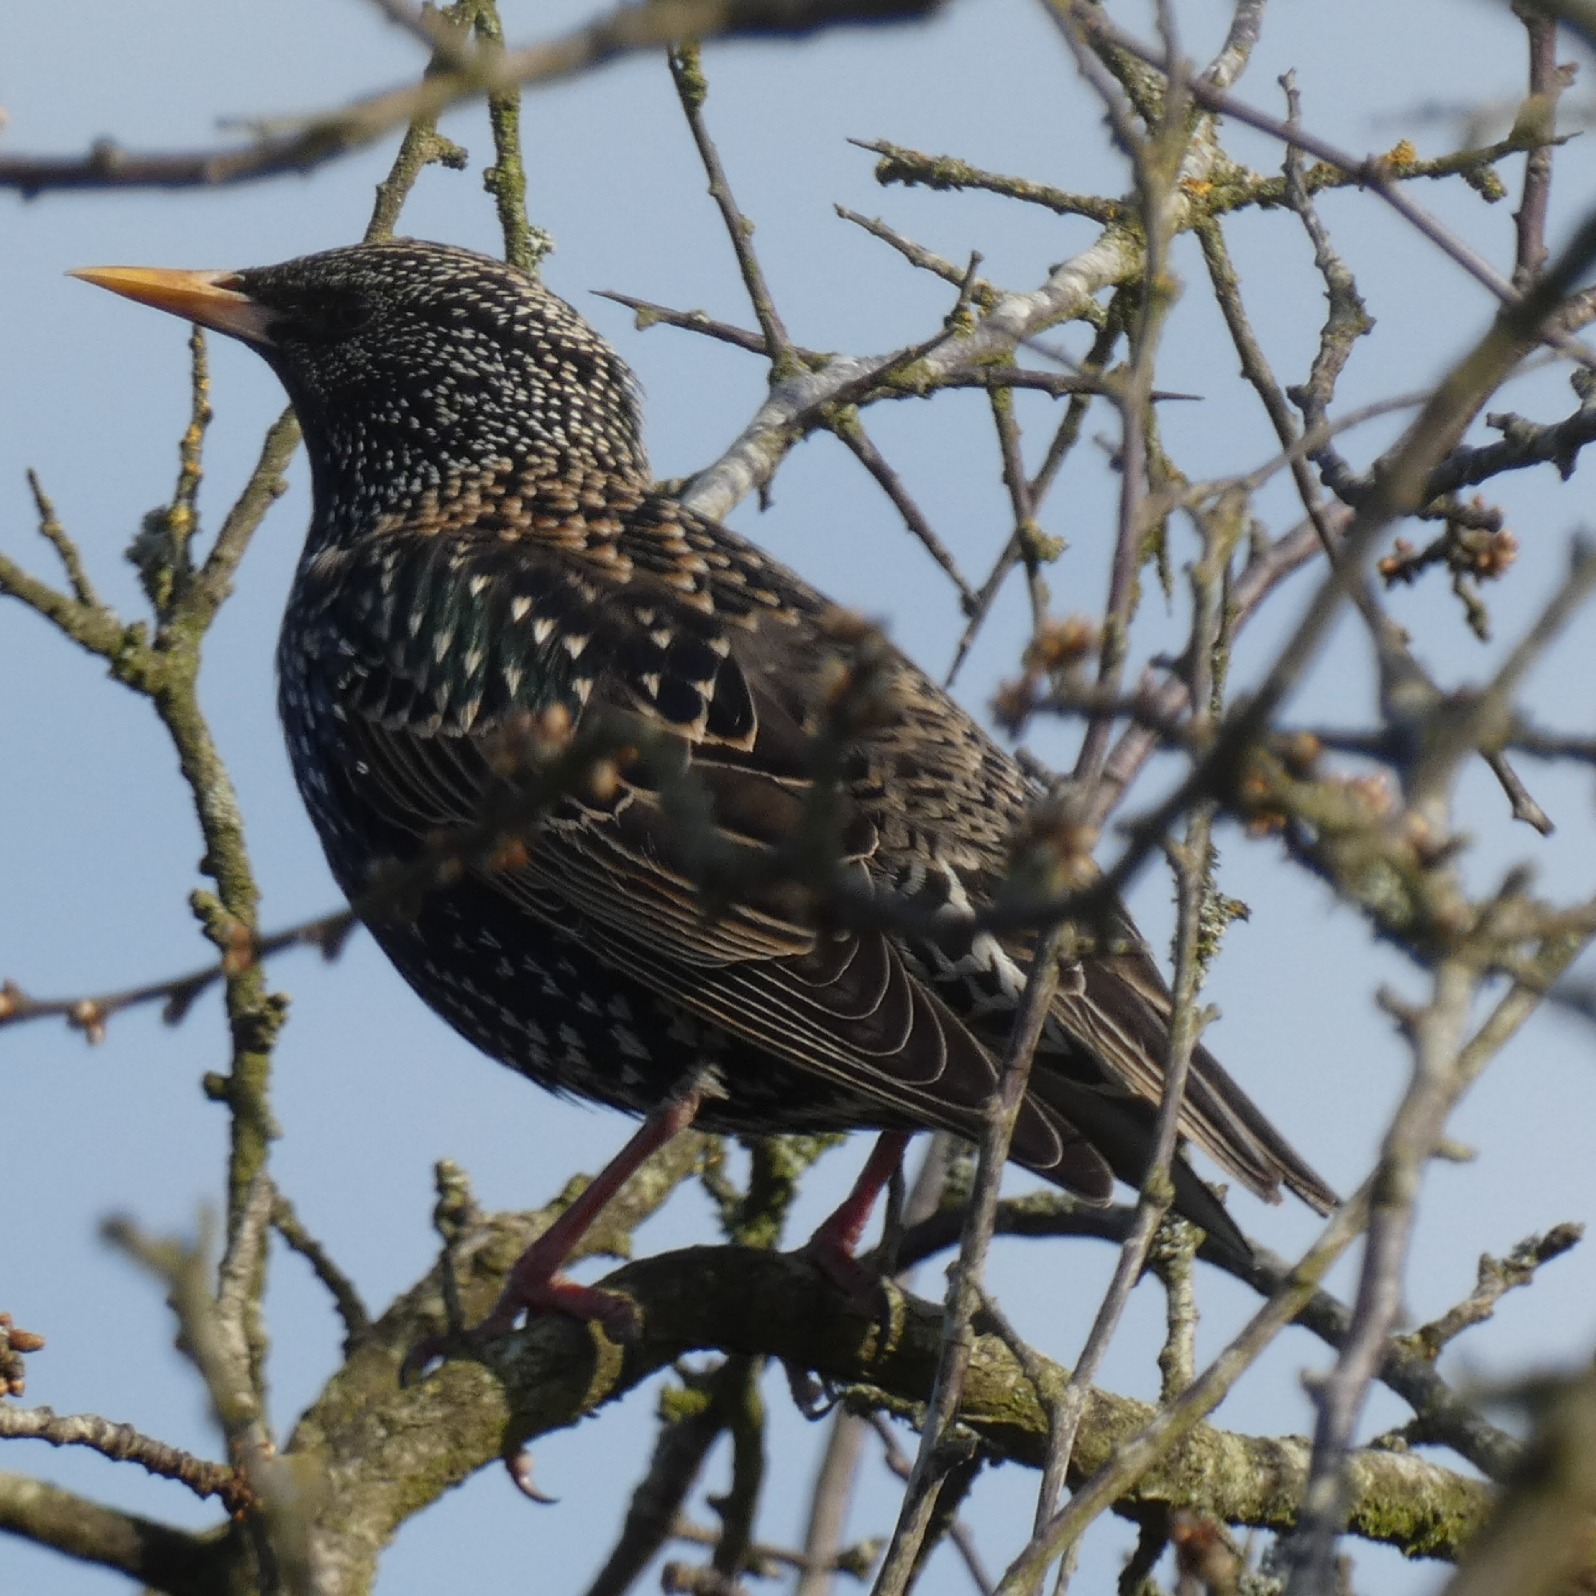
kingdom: Animalia
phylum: Chordata
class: Aves
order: Passeriformes
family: Sturnidae
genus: Sturnus
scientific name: Sturnus vulgaris
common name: Stær
